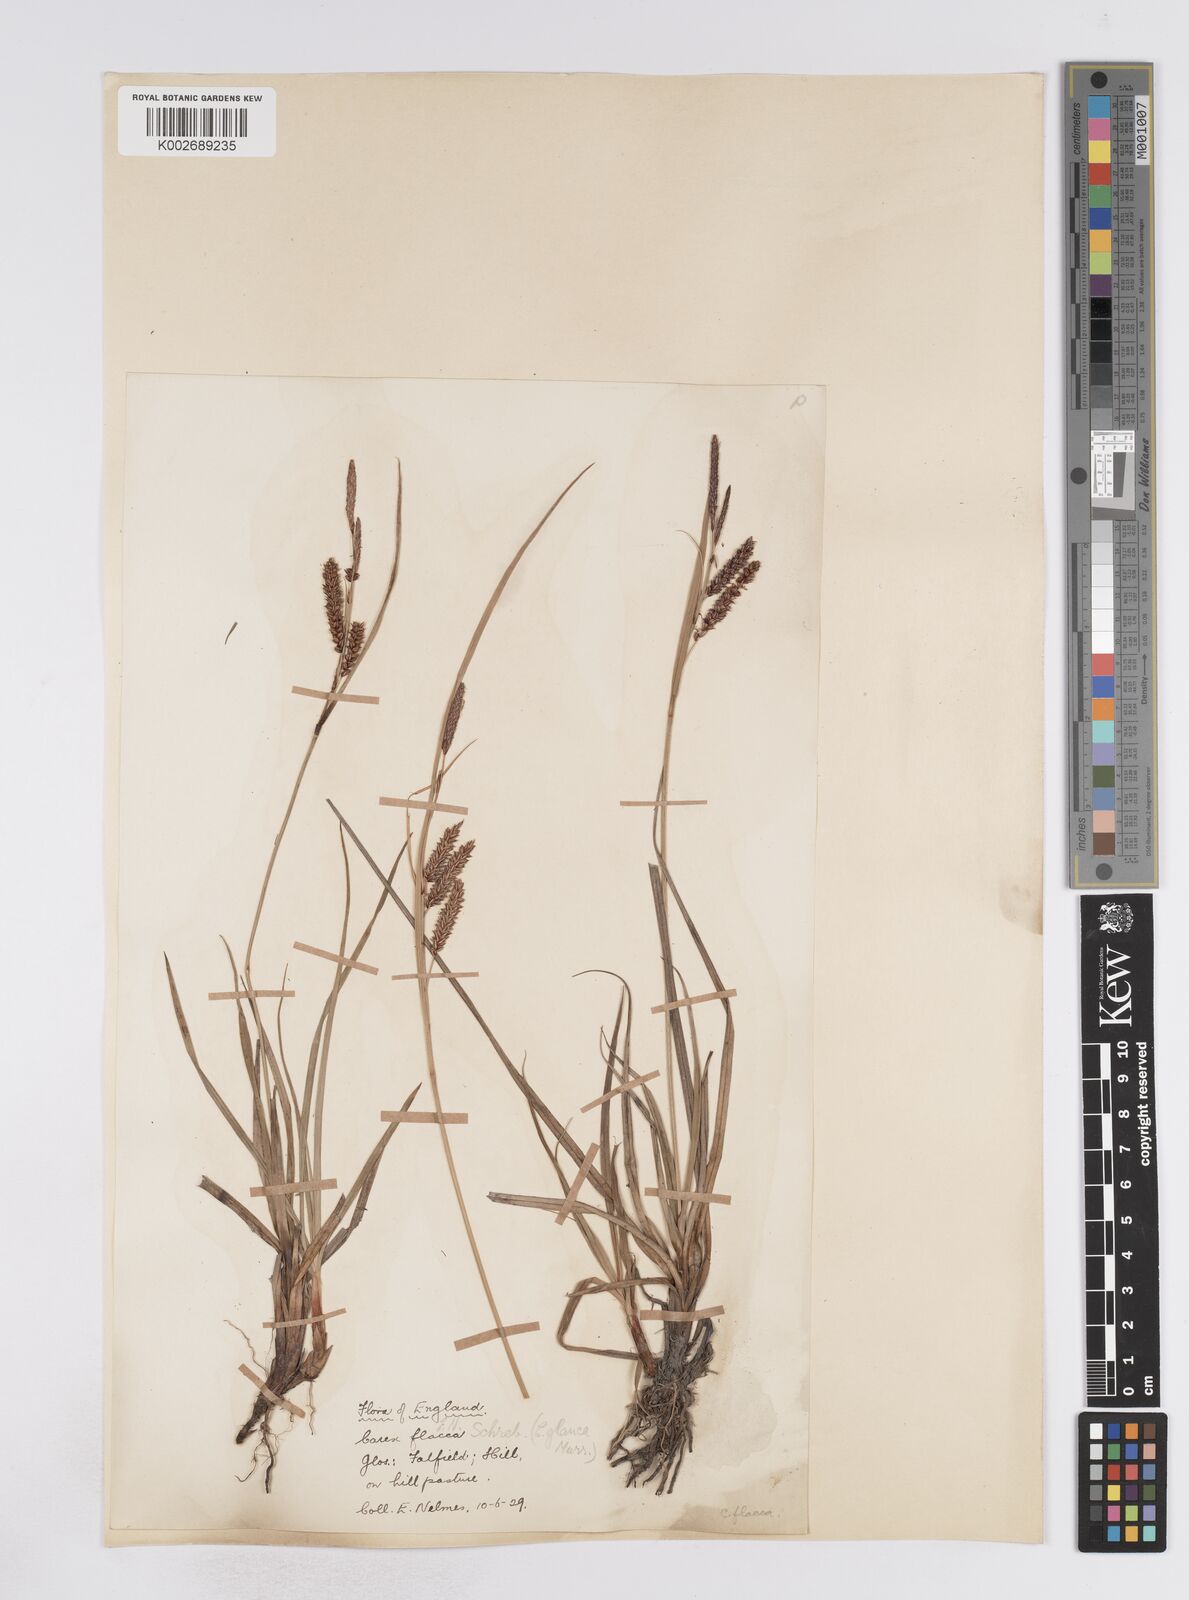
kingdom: Plantae
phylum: Tracheophyta
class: Liliopsida
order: Poales
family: Cyperaceae
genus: Carex
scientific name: Carex flacca
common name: Glaucous sedge
